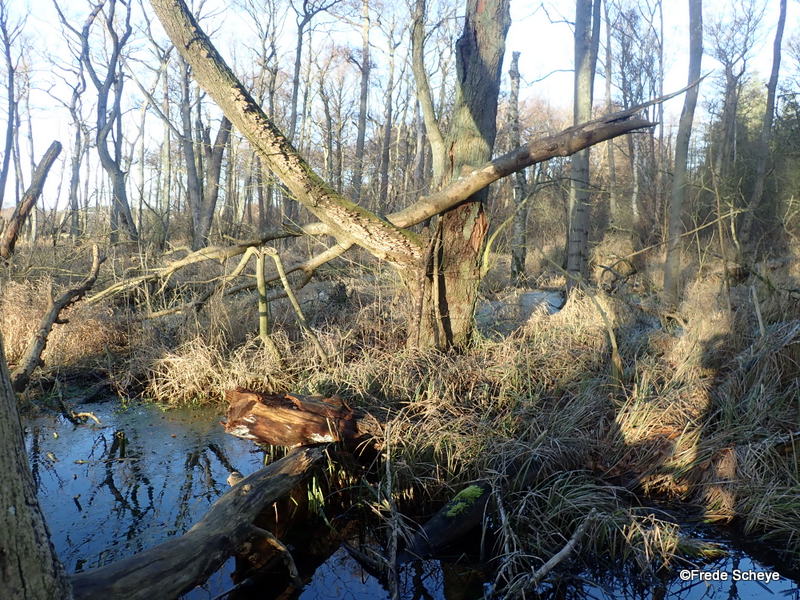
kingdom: Fungi
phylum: Basidiomycota
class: Agaricomycetes
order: Hymenochaetales
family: Hymenochaetaceae
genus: Xanthoporia
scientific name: Xanthoporia radiata
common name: elle-spejlporesvamp
